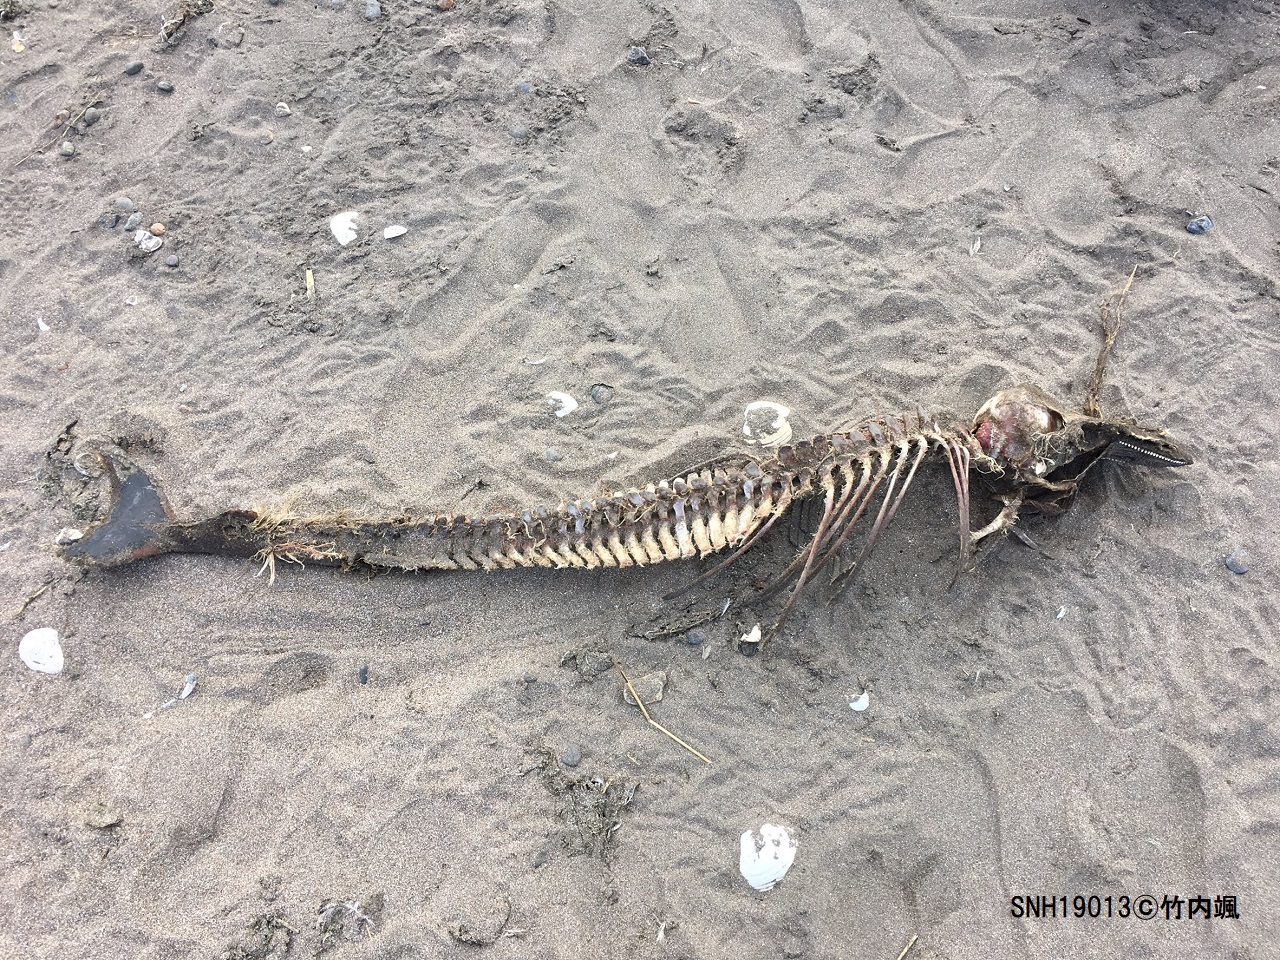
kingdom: Animalia
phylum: Chordata
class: Mammalia
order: Cetacea
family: Phocoenidae
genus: Phocoena
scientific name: Phocoena phocoena
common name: Harbour porpoise
